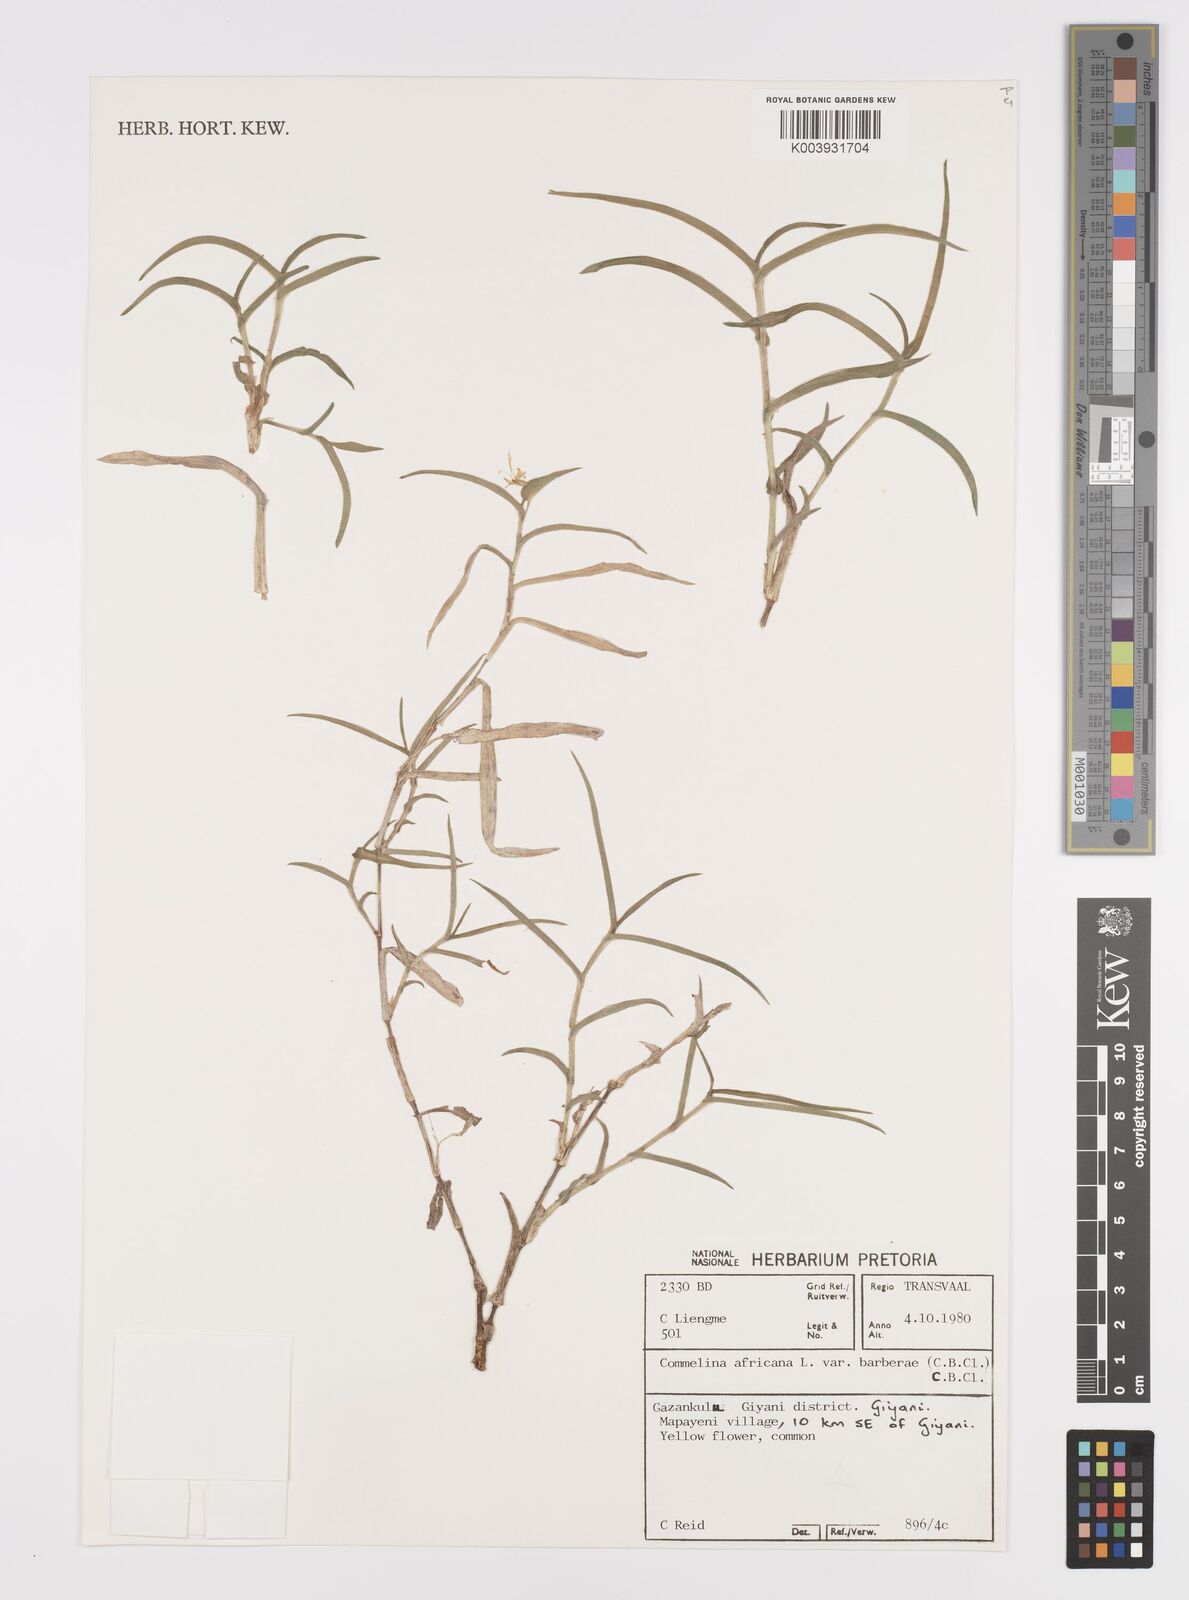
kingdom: Plantae
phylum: Tracheophyta
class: Liliopsida
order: Commelinales
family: Commelinaceae
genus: Commelina
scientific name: Commelina africana
